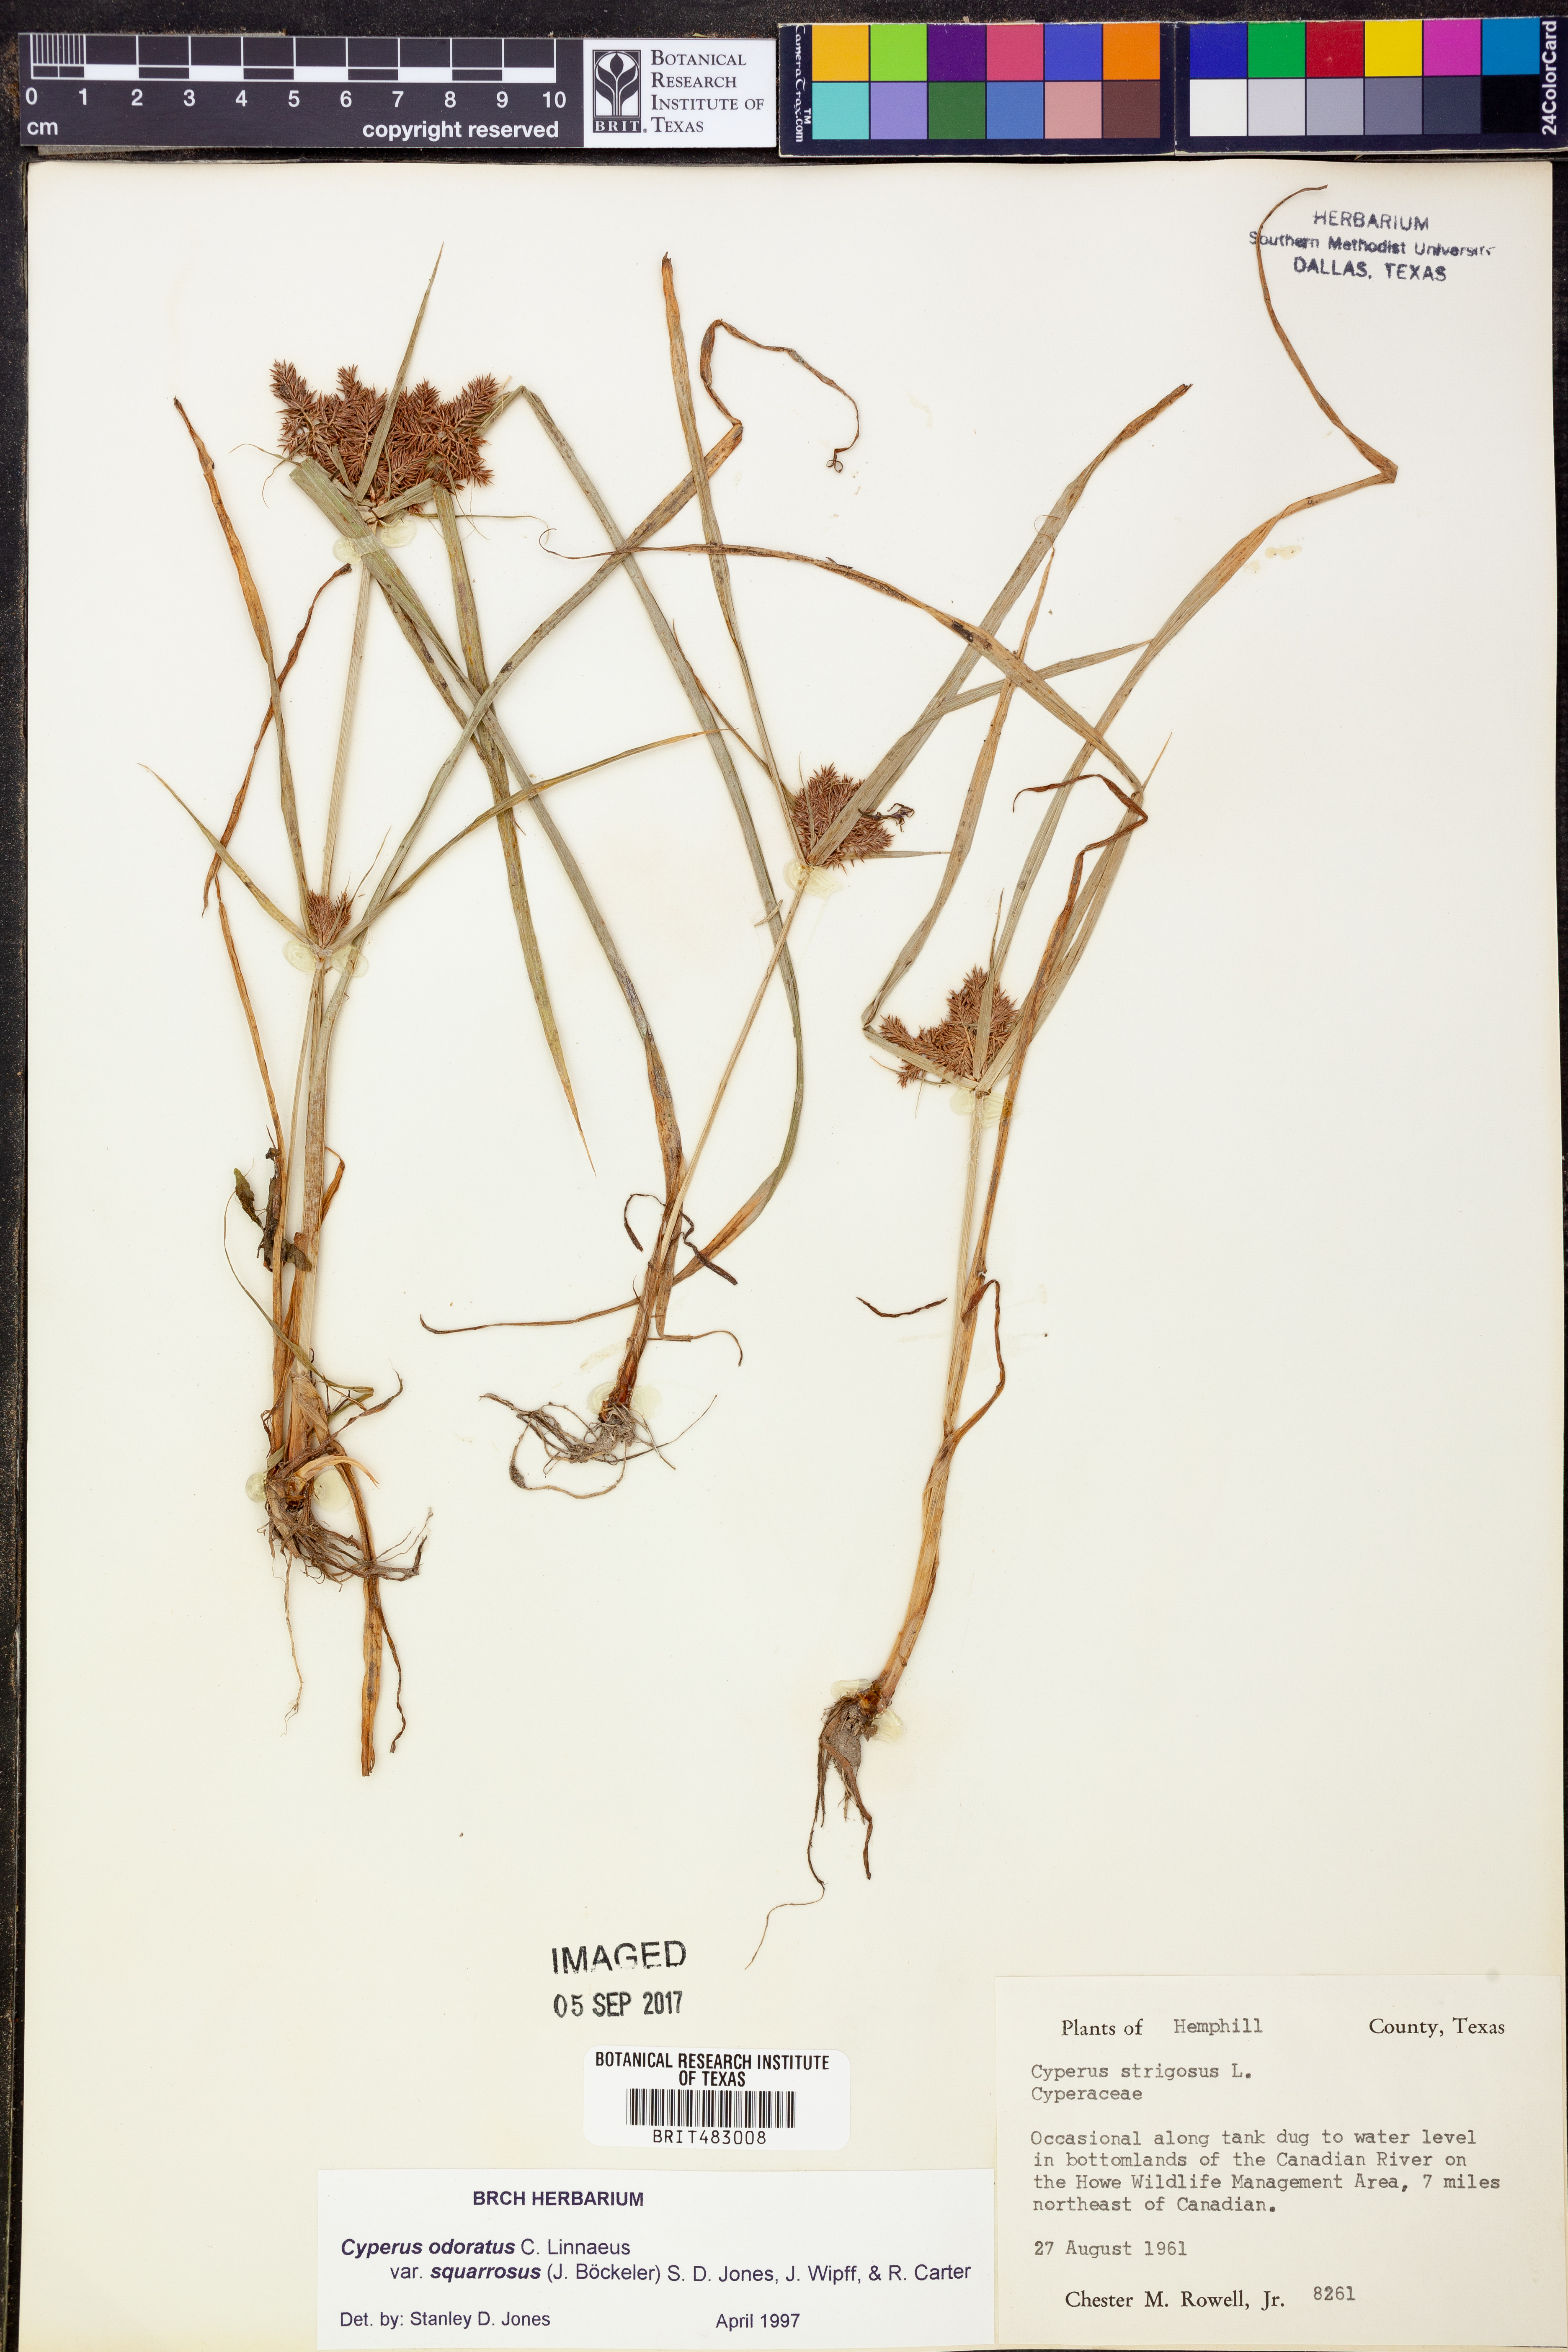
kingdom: Plantae
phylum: Tracheophyta
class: Liliopsida
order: Poales
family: Cyperaceae
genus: Cyperus
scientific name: Cyperus odoratus
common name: Fragrant flatsedge
